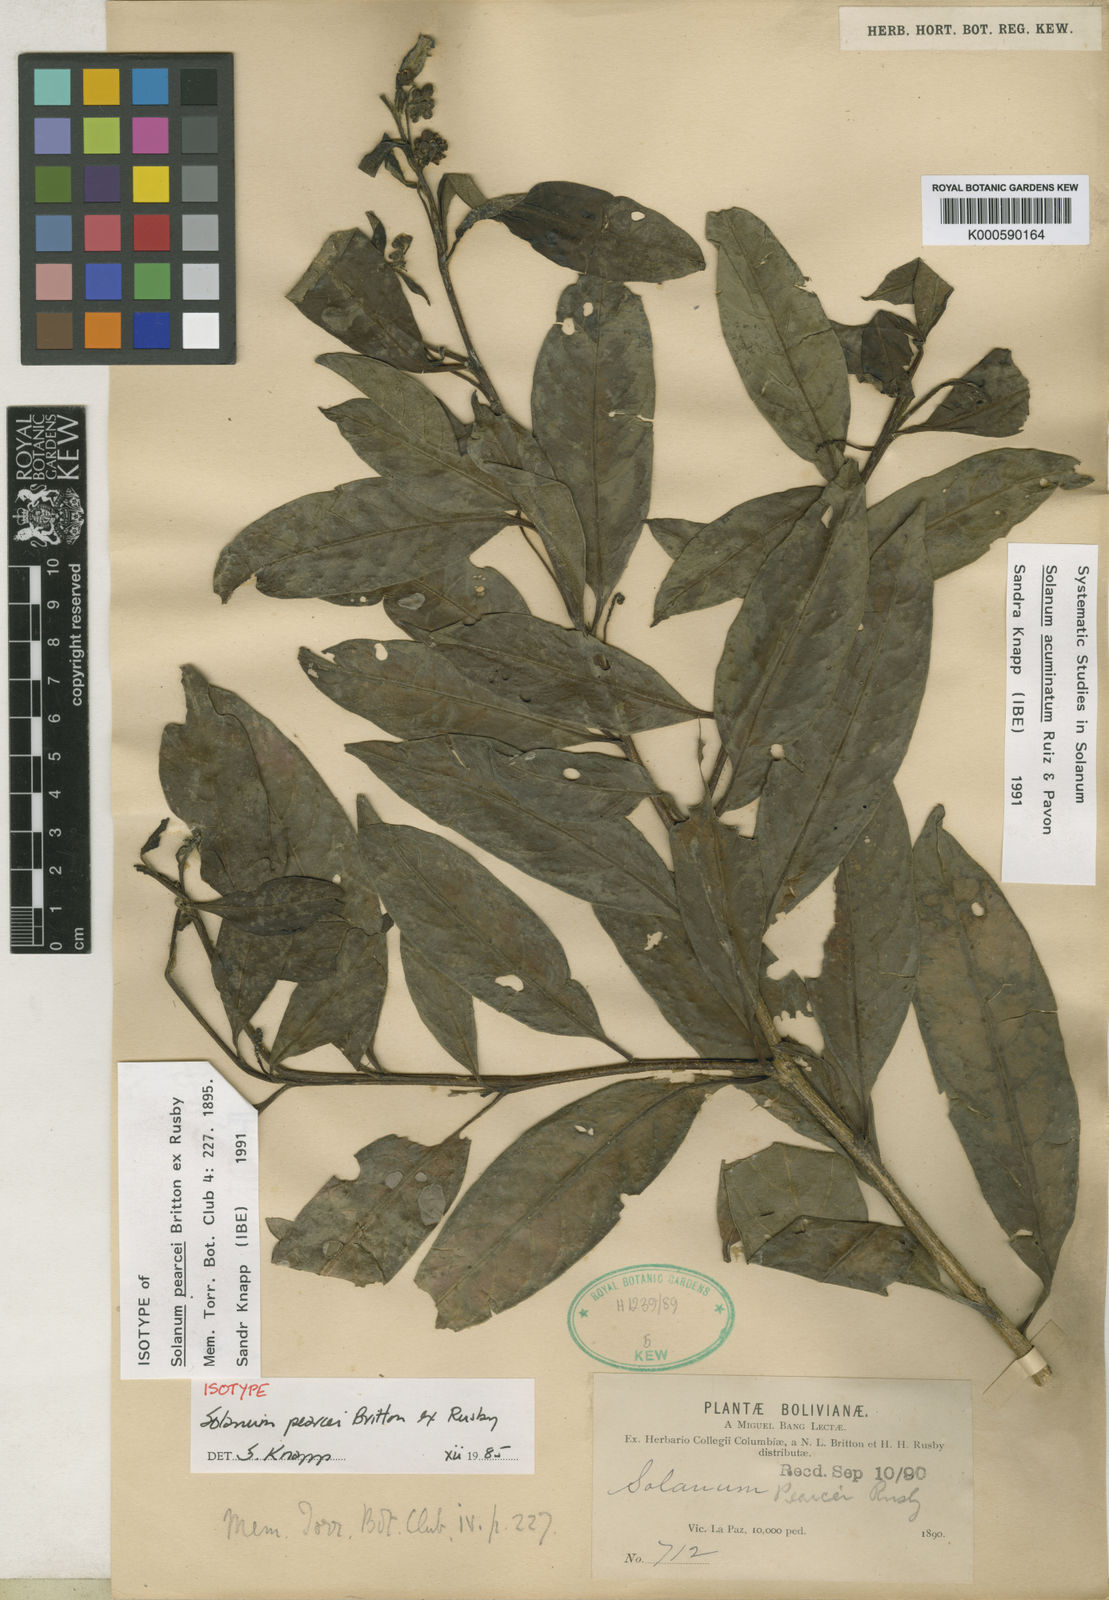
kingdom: Plantae
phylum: Tracheophyta
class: Magnoliopsida
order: Solanales
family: Solanaceae
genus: Solanum
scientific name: Solanum acuminatum
